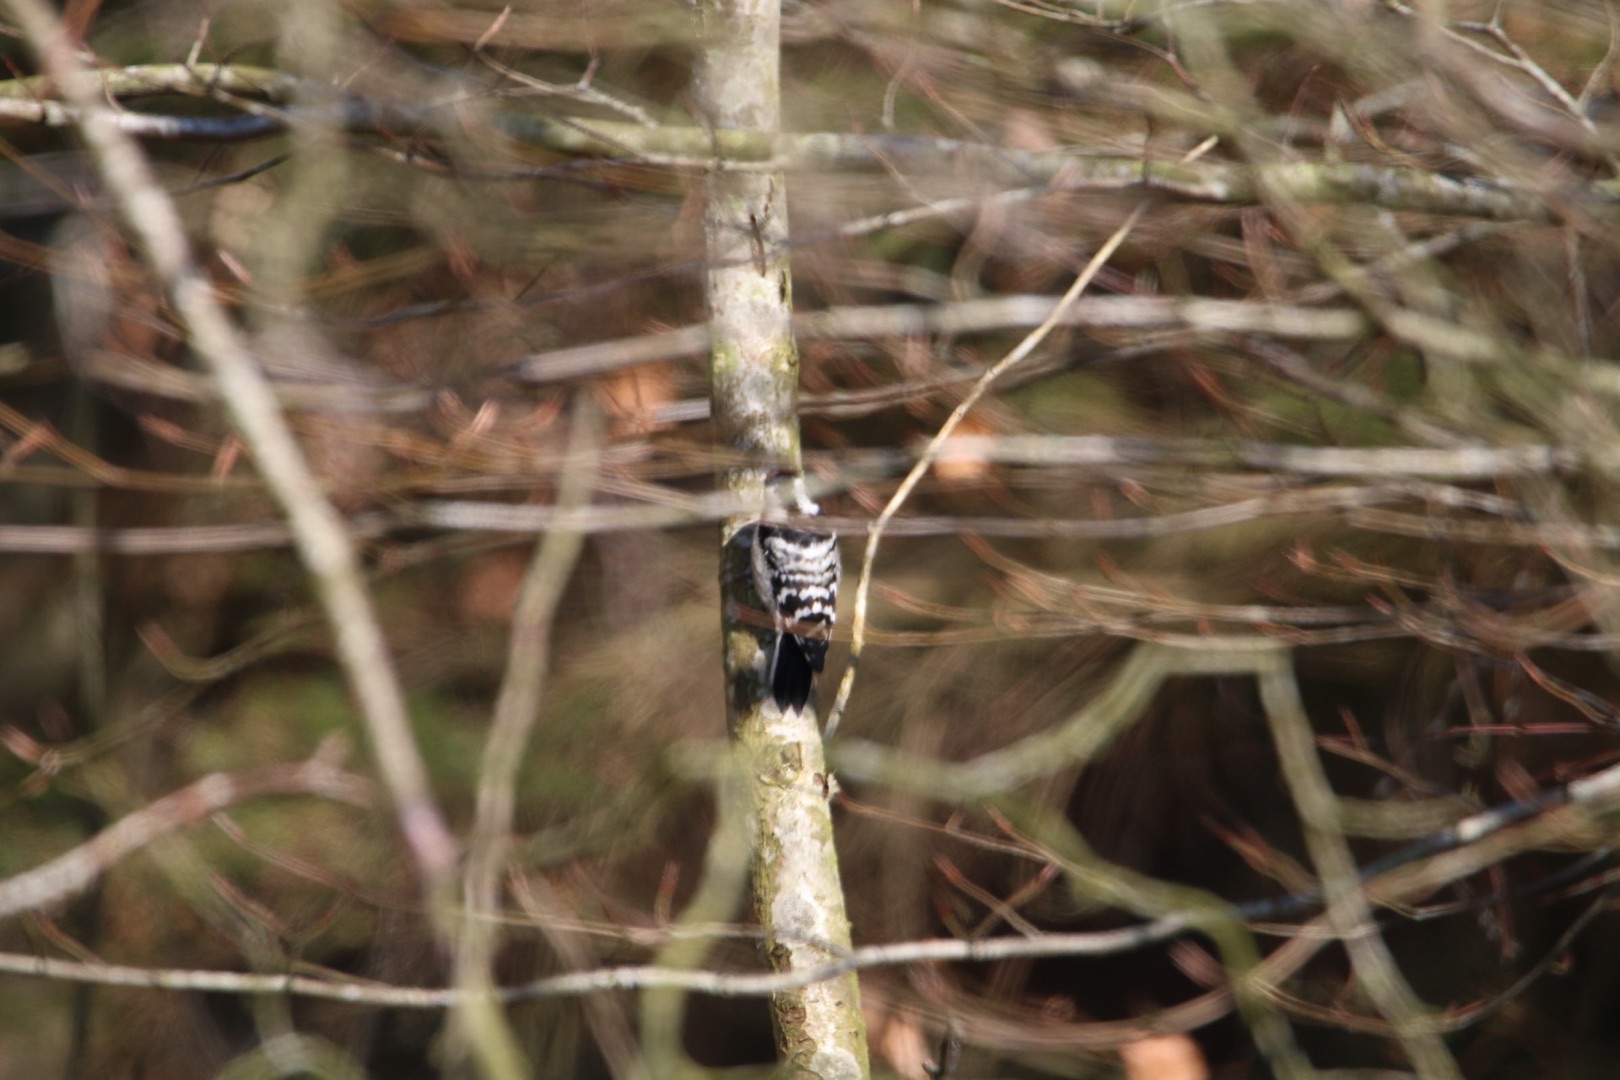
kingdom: Animalia
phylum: Chordata
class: Aves
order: Piciformes
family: Picidae
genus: Dryobates
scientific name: Dryobates minor
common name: Lille flagspætte
